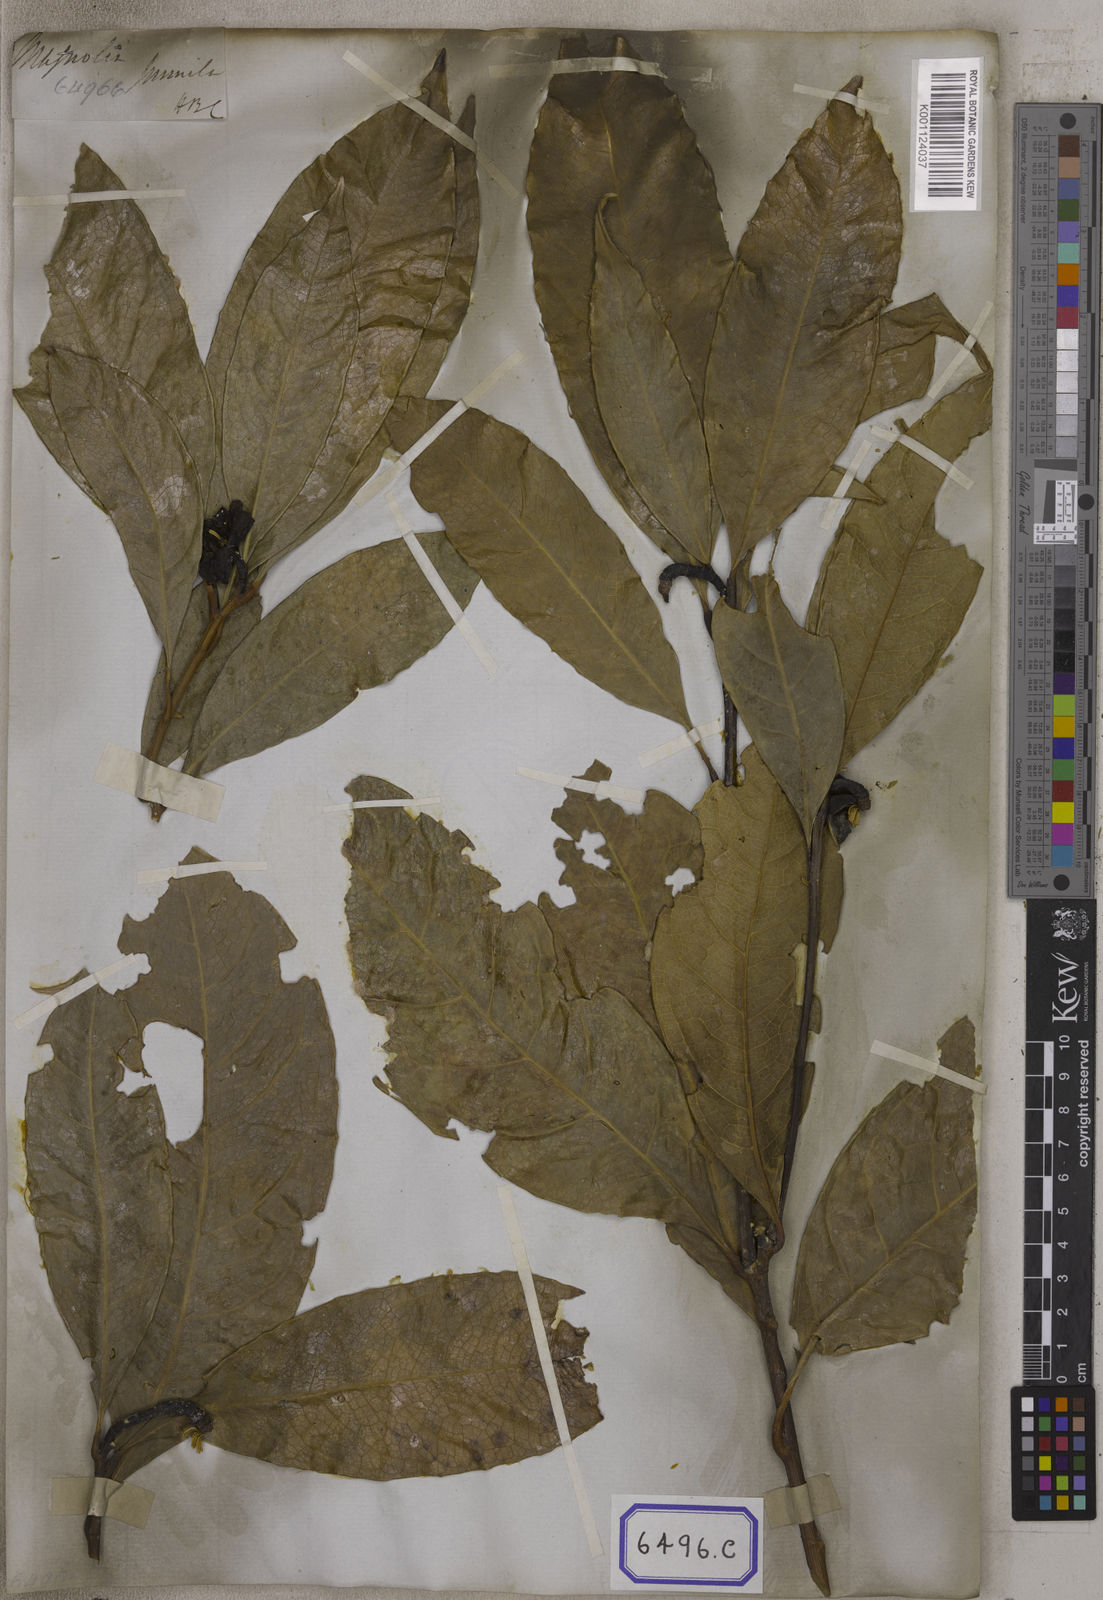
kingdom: Plantae
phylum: Tracheophyta
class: Magnoliopsida
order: Magnoliales
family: Magnoliaceae
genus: Magnolia
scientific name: Magnolia liliifera
